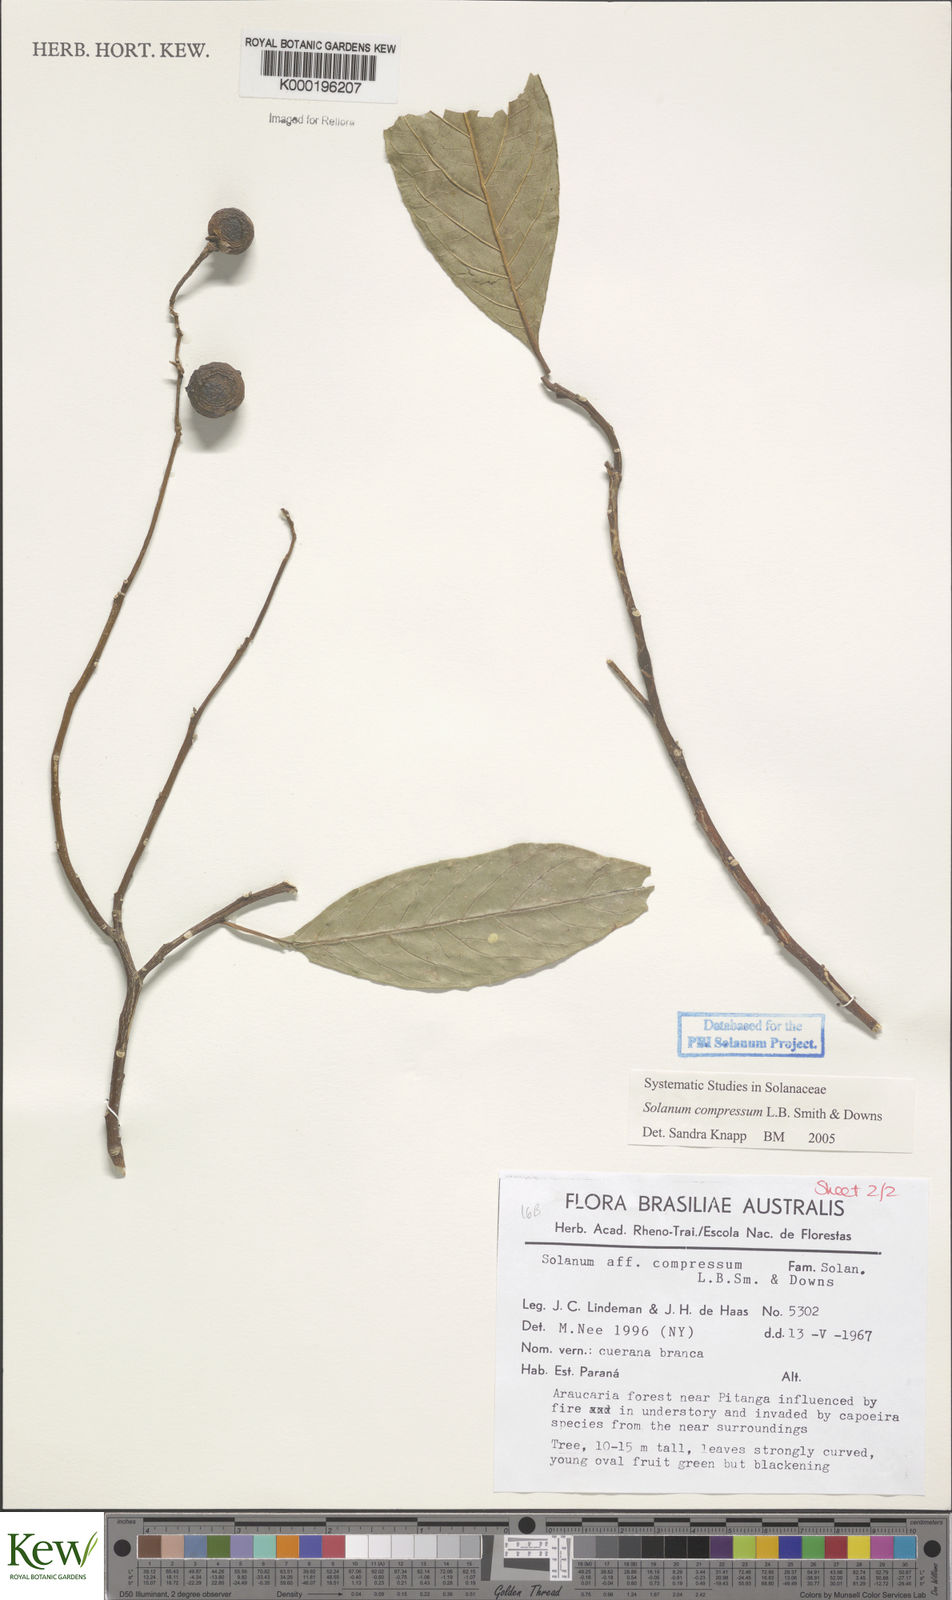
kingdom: Plantae
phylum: Tracheophyta
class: Magnoliopsida
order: Solanales
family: Solanaceae
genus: Solanum
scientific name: Solanum compressum
